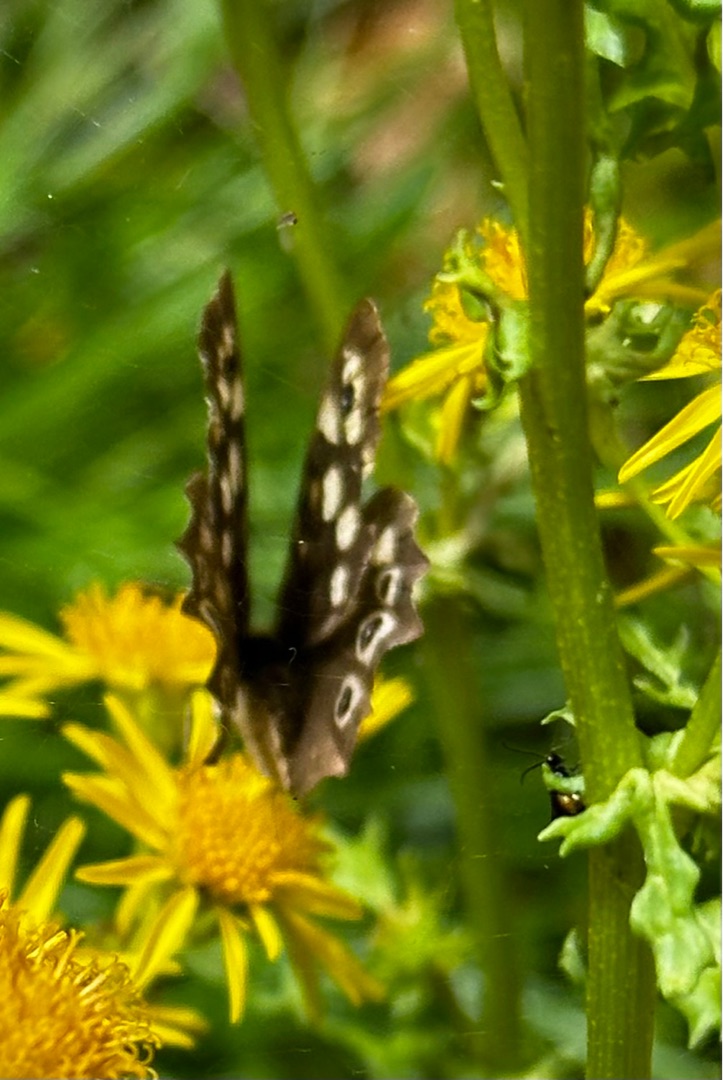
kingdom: Animalia
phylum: Arthropoda
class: Insecta
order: Lepidoptera
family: Nymphalidae
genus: Pararge
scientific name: Pararge aegeria
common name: Skovrandøje
